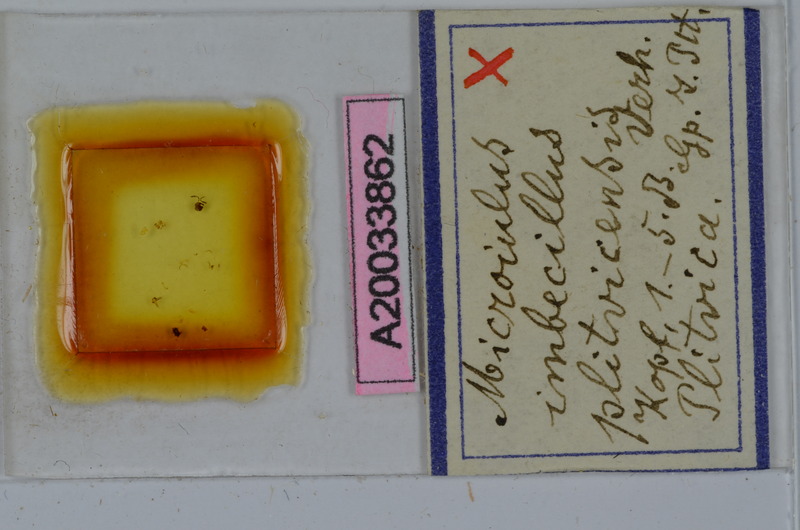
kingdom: Animalia
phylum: Arthropoda
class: Diplopoda
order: Julida
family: Julidae
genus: Xestoiulus
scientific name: Xestoiulus imbecillus
